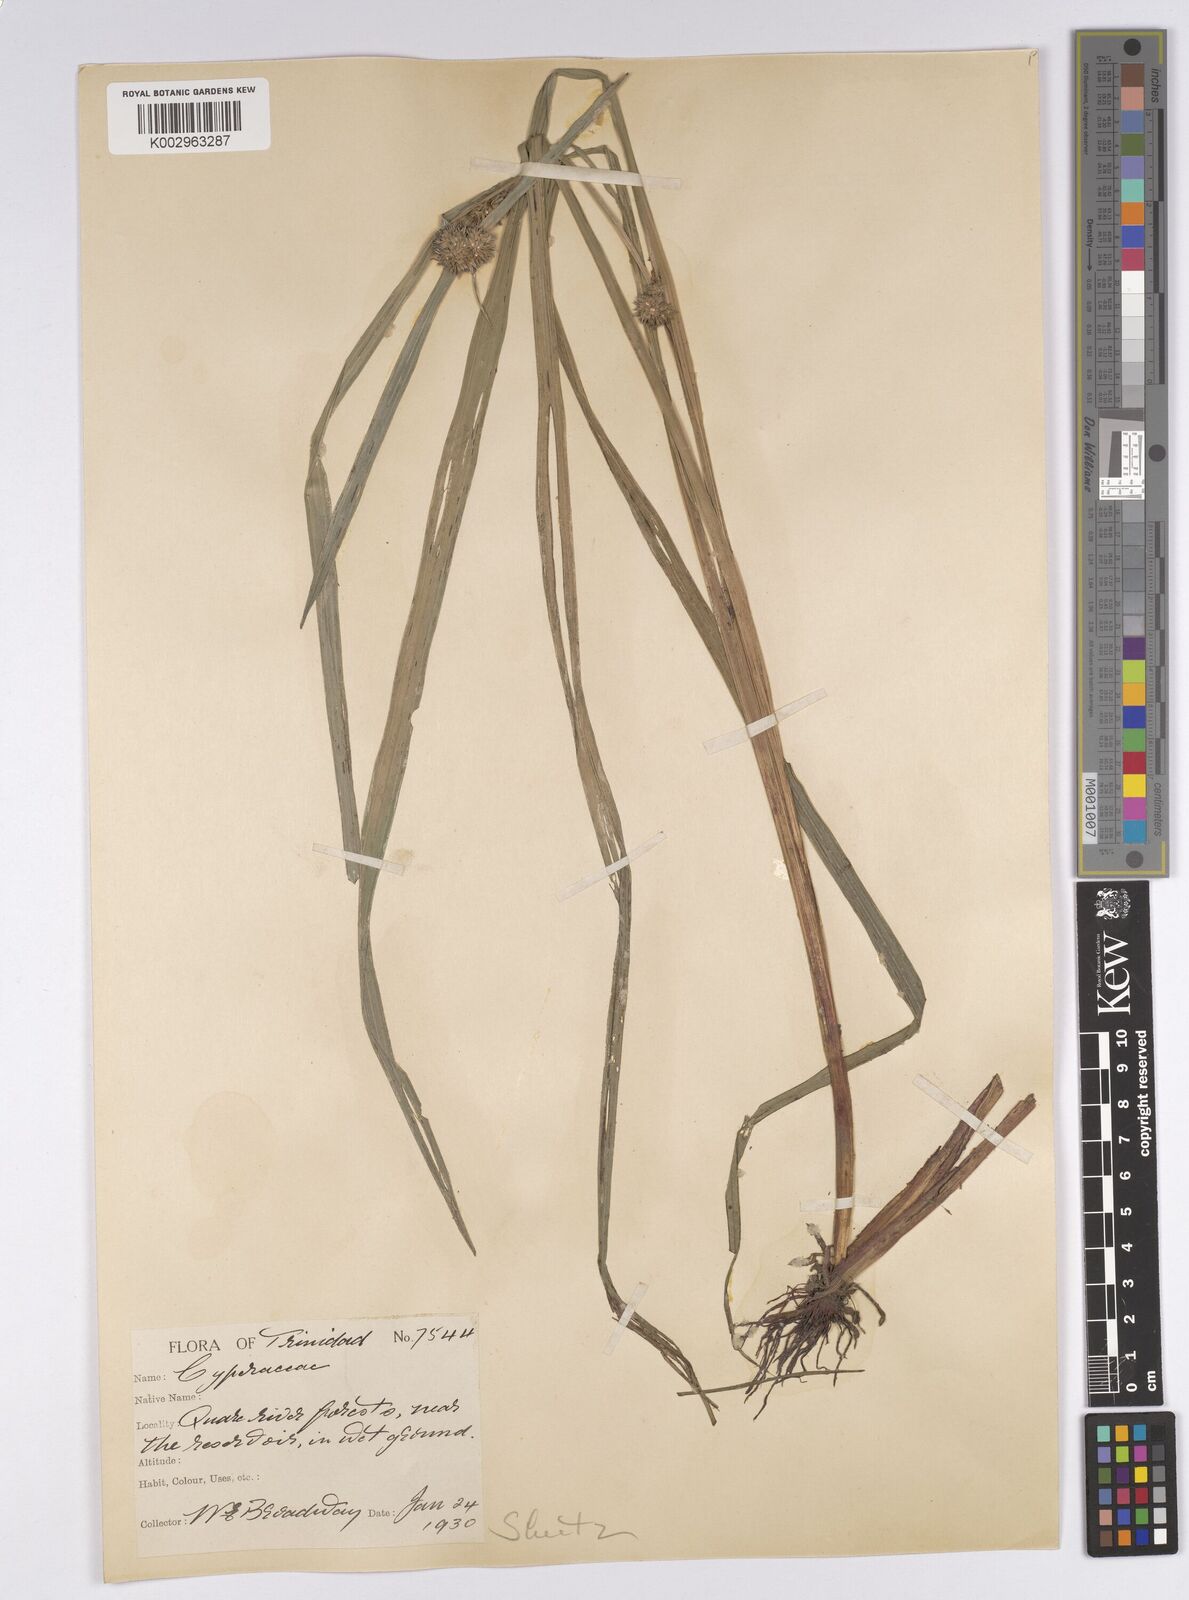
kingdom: Plantae
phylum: Tracheophyta
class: Liliopsida
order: Poales
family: Cyperaceae
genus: Diplacrum
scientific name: Diplacrum capitatum
